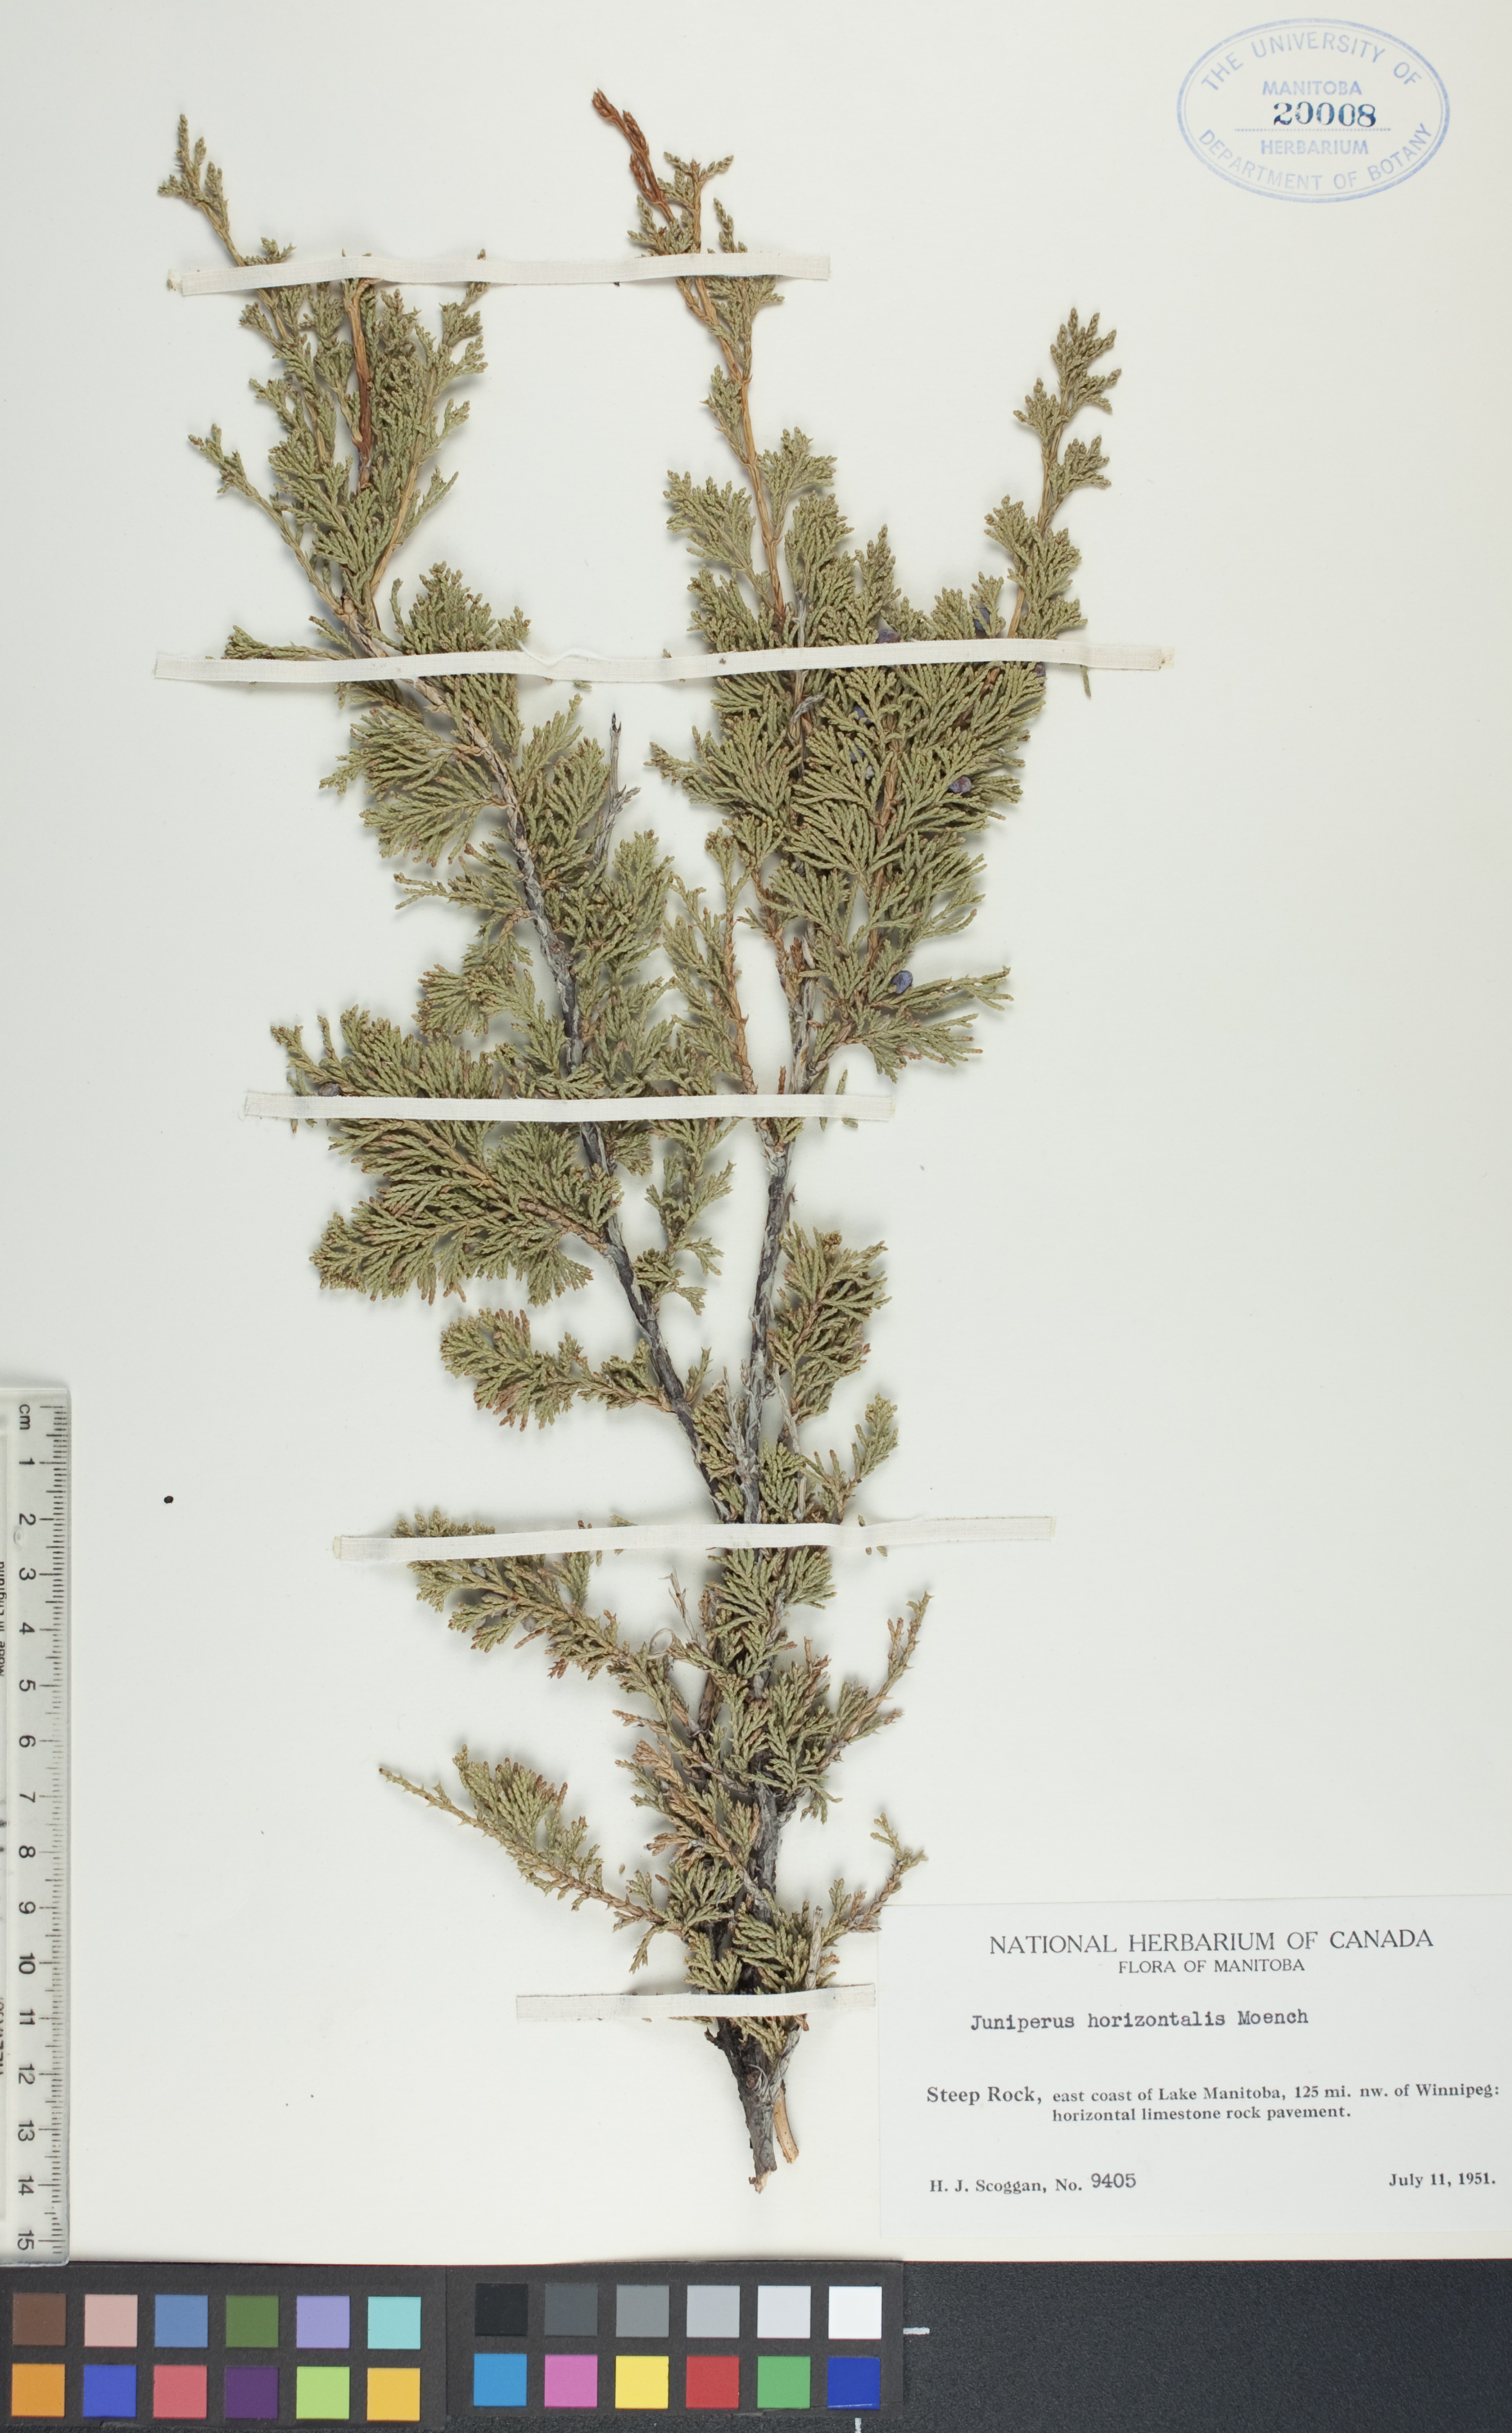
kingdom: Plantae
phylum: Tracheophyta
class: Pinopsida
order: Pinales
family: Cupressaceae
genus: Juniperus
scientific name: Juniperus horizontalis
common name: Creeping juniper
